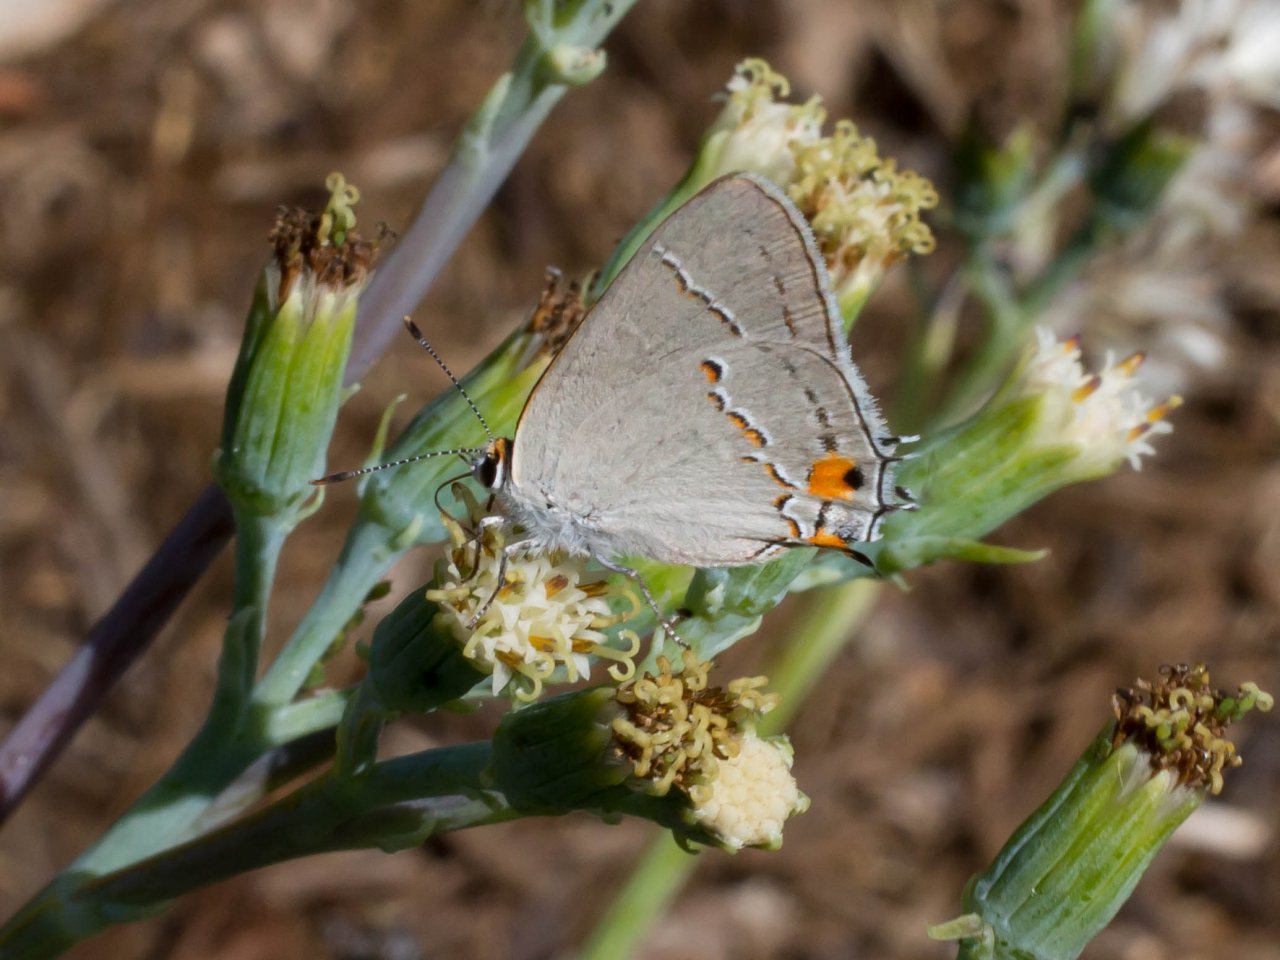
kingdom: Animalia
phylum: Arthropoda
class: Insecta
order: Lepidoptera
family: Lycaenidae
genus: Strymon
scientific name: Strymon melinus
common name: Gray Hairstreak
